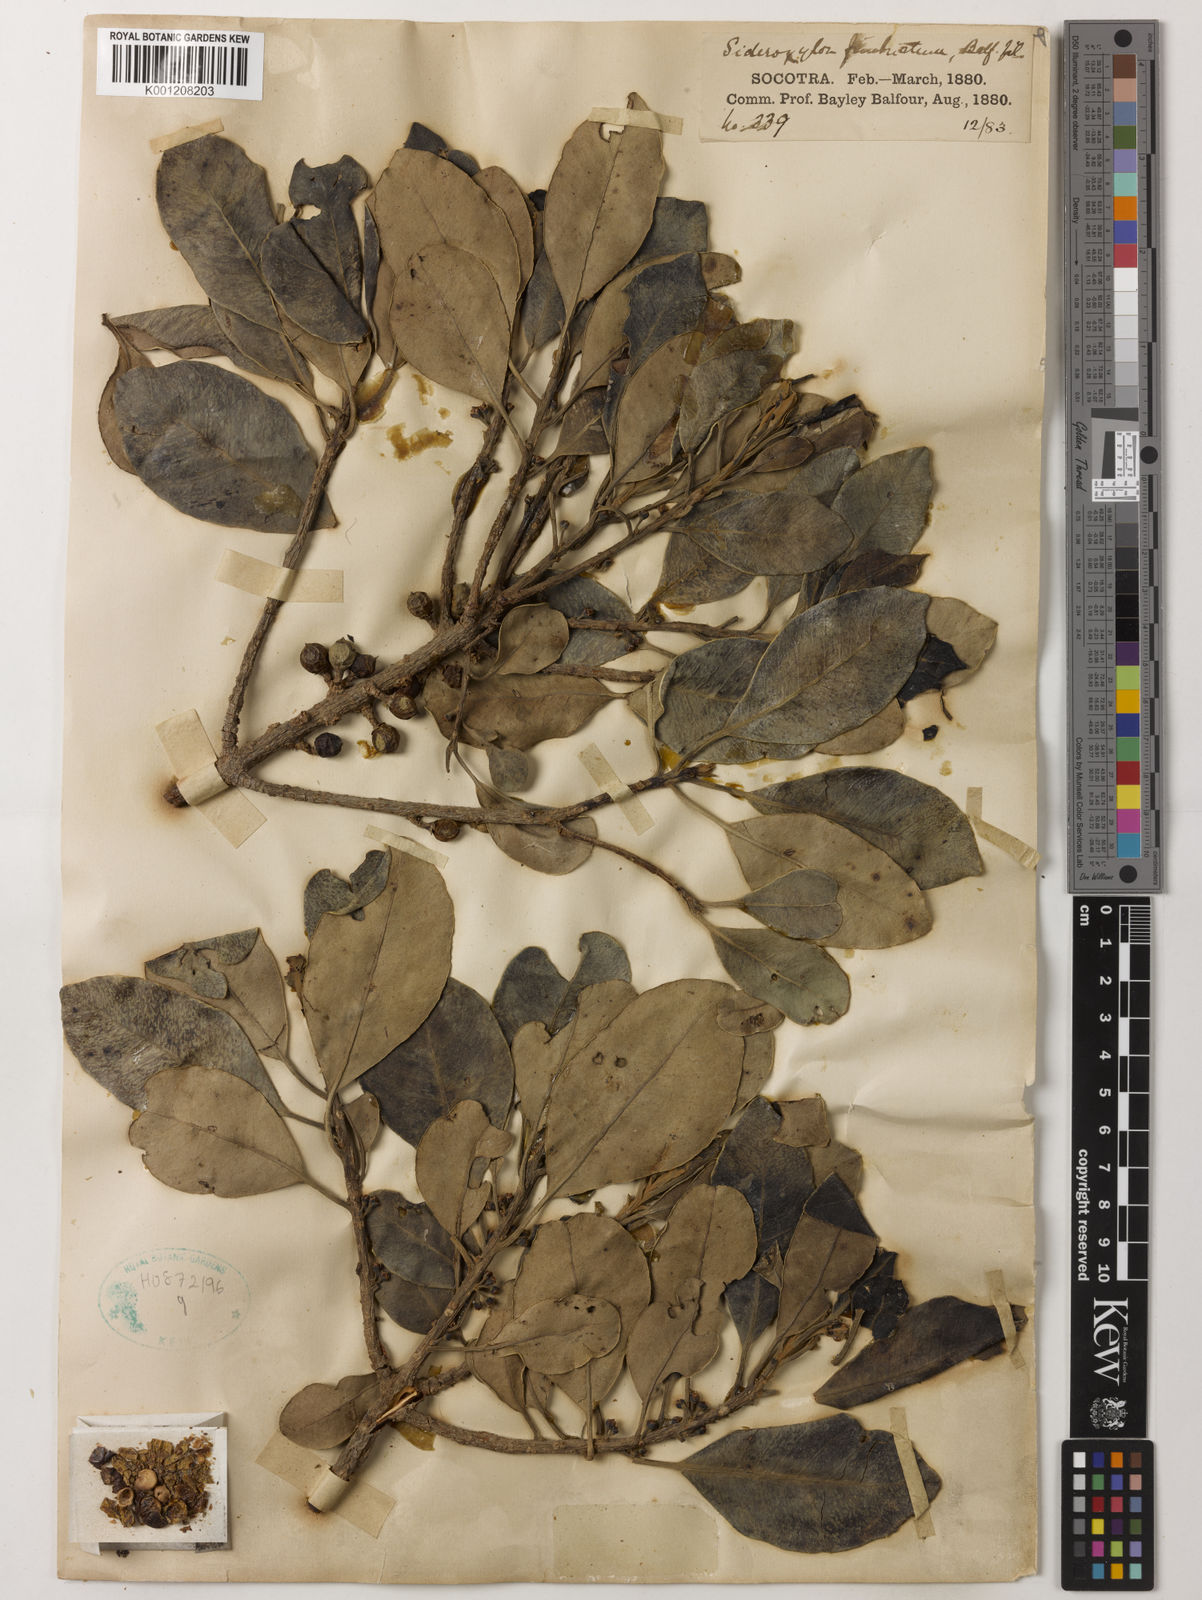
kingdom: Plantae
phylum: Tracheophyta
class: Magnoliopsida
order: Ericales
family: Sapotaceae
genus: Sideroxylon
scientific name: Sideroxylon fimbriatum
